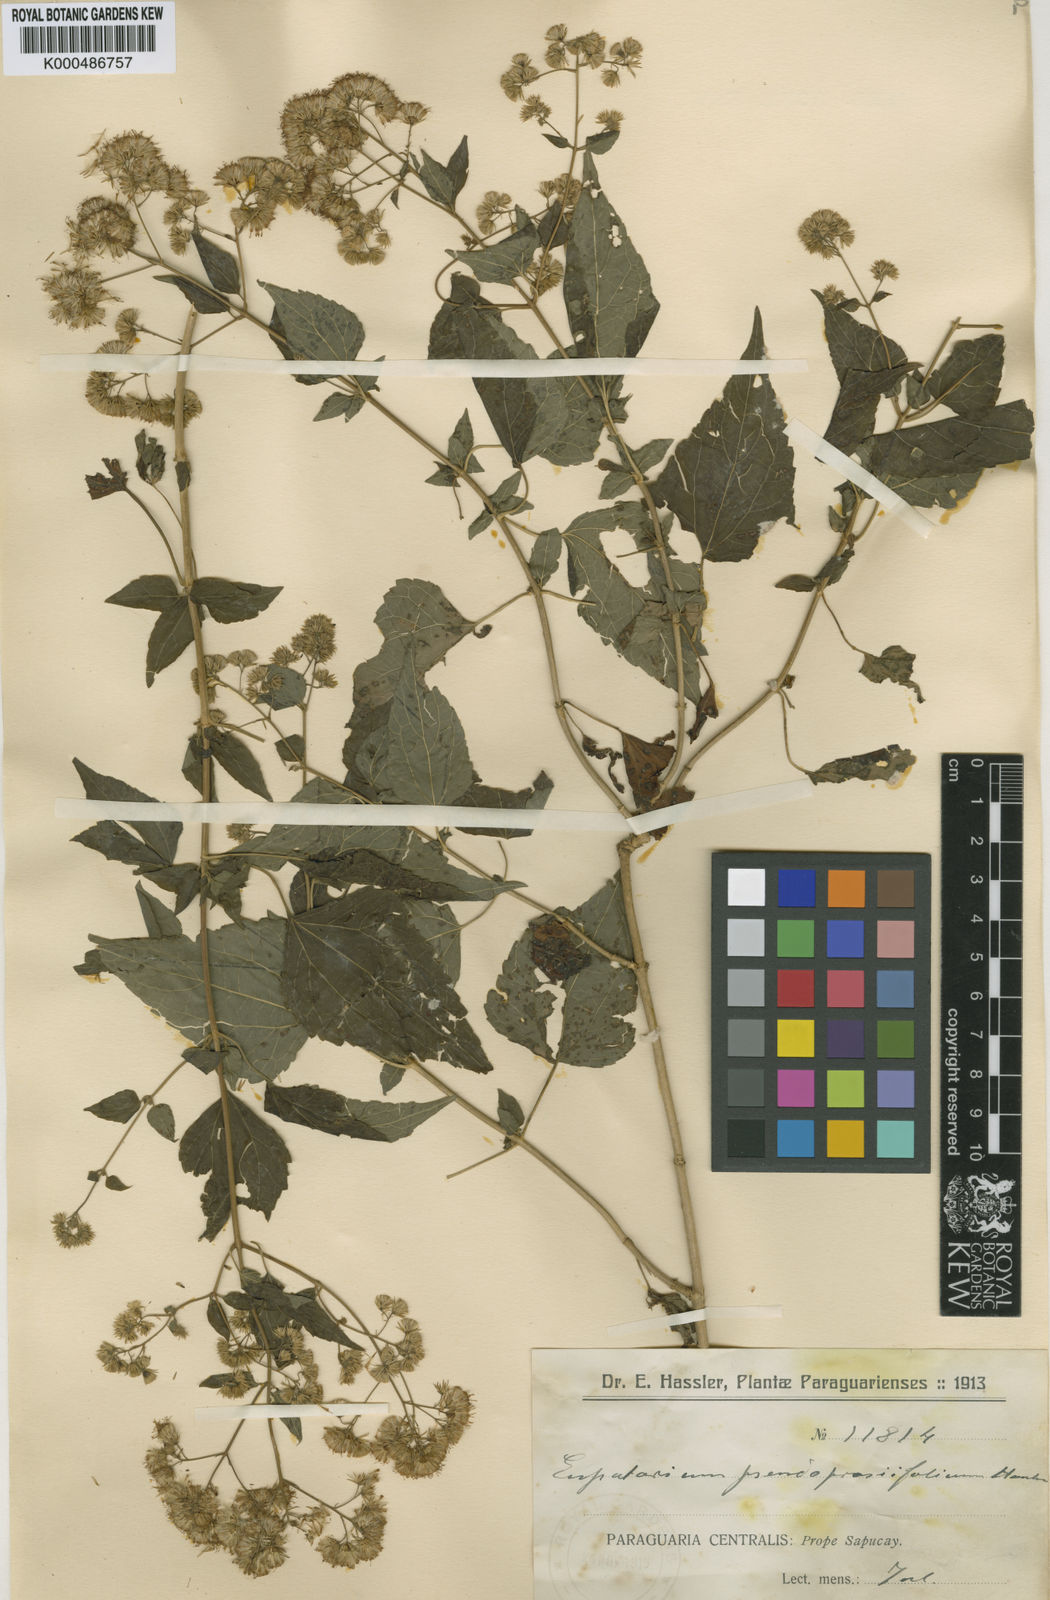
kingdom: Plantae
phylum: Tracheophyta
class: Magnoliopsida
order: Asterales
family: Asteraceae
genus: Chacoa
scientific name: Chacoa pseudoprasiifolia
